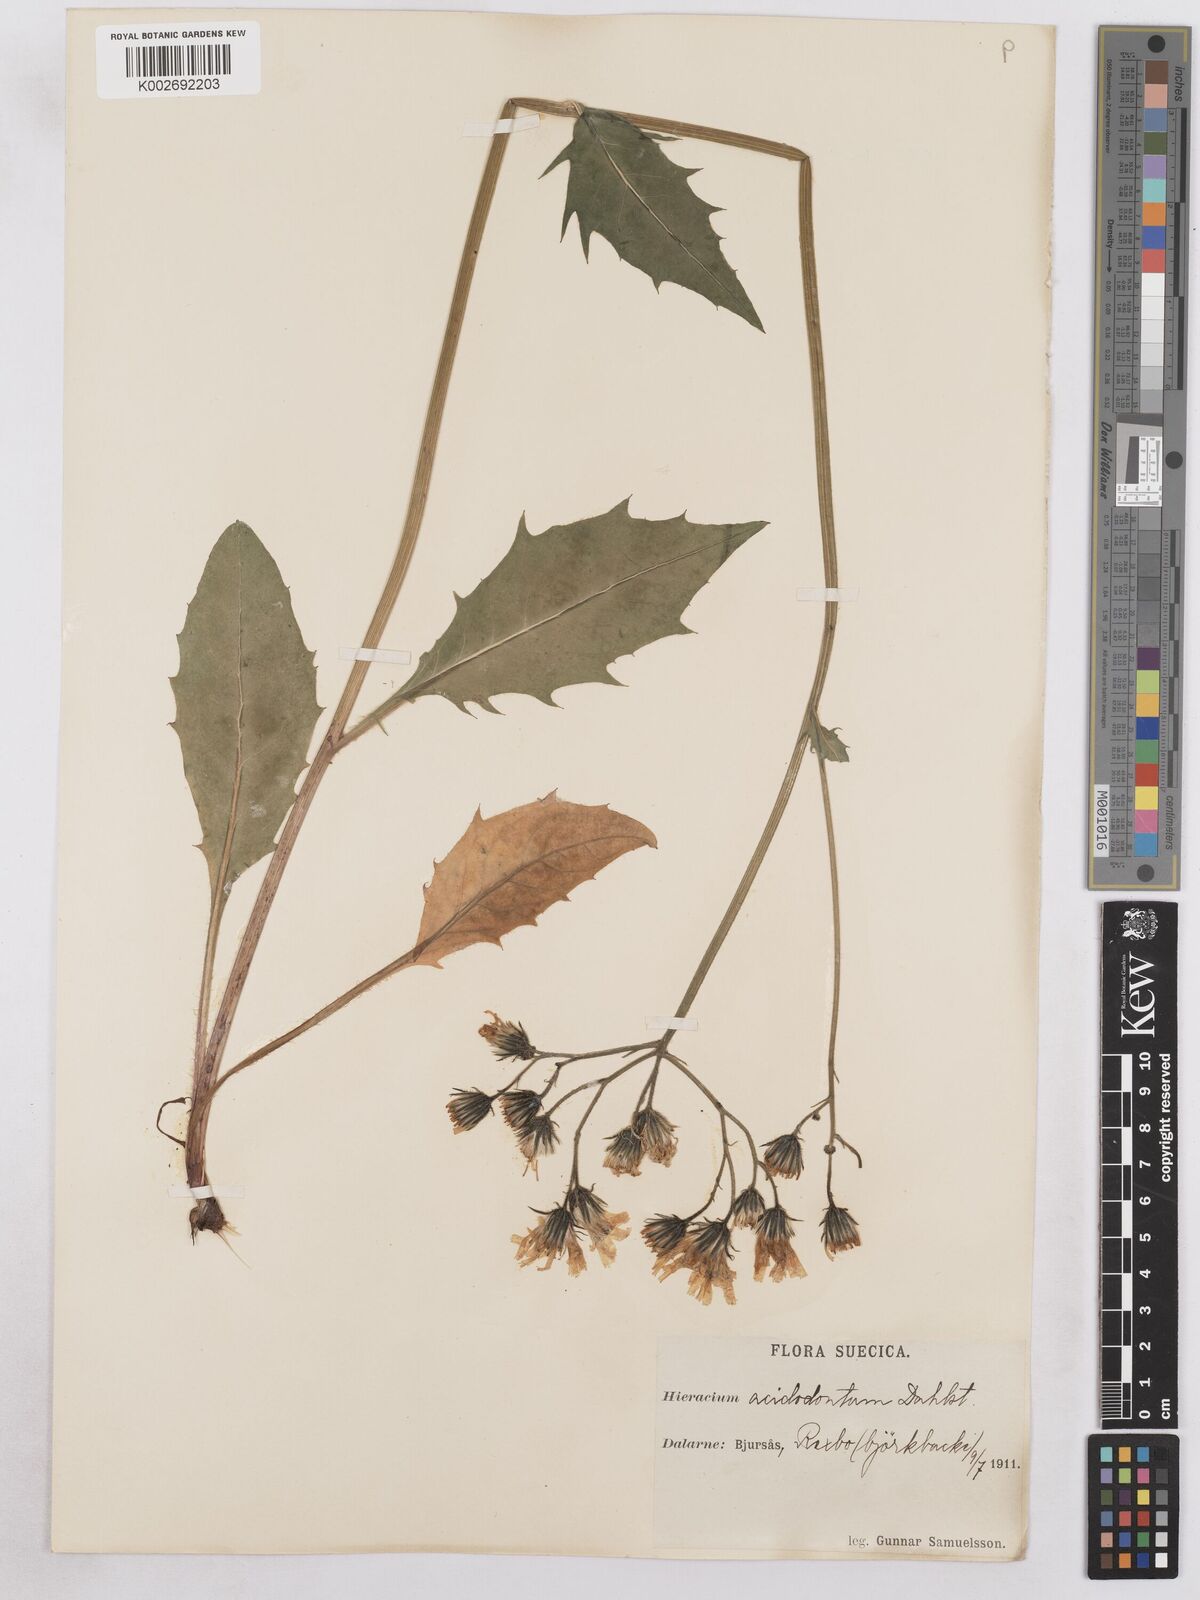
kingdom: Plantae
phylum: Tracheophyta
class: Magnoliopsida
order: Asterales
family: Asteraceae
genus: Hieracium
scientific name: Hieracium diaphanoides
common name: Fine-bracted hawkweed
